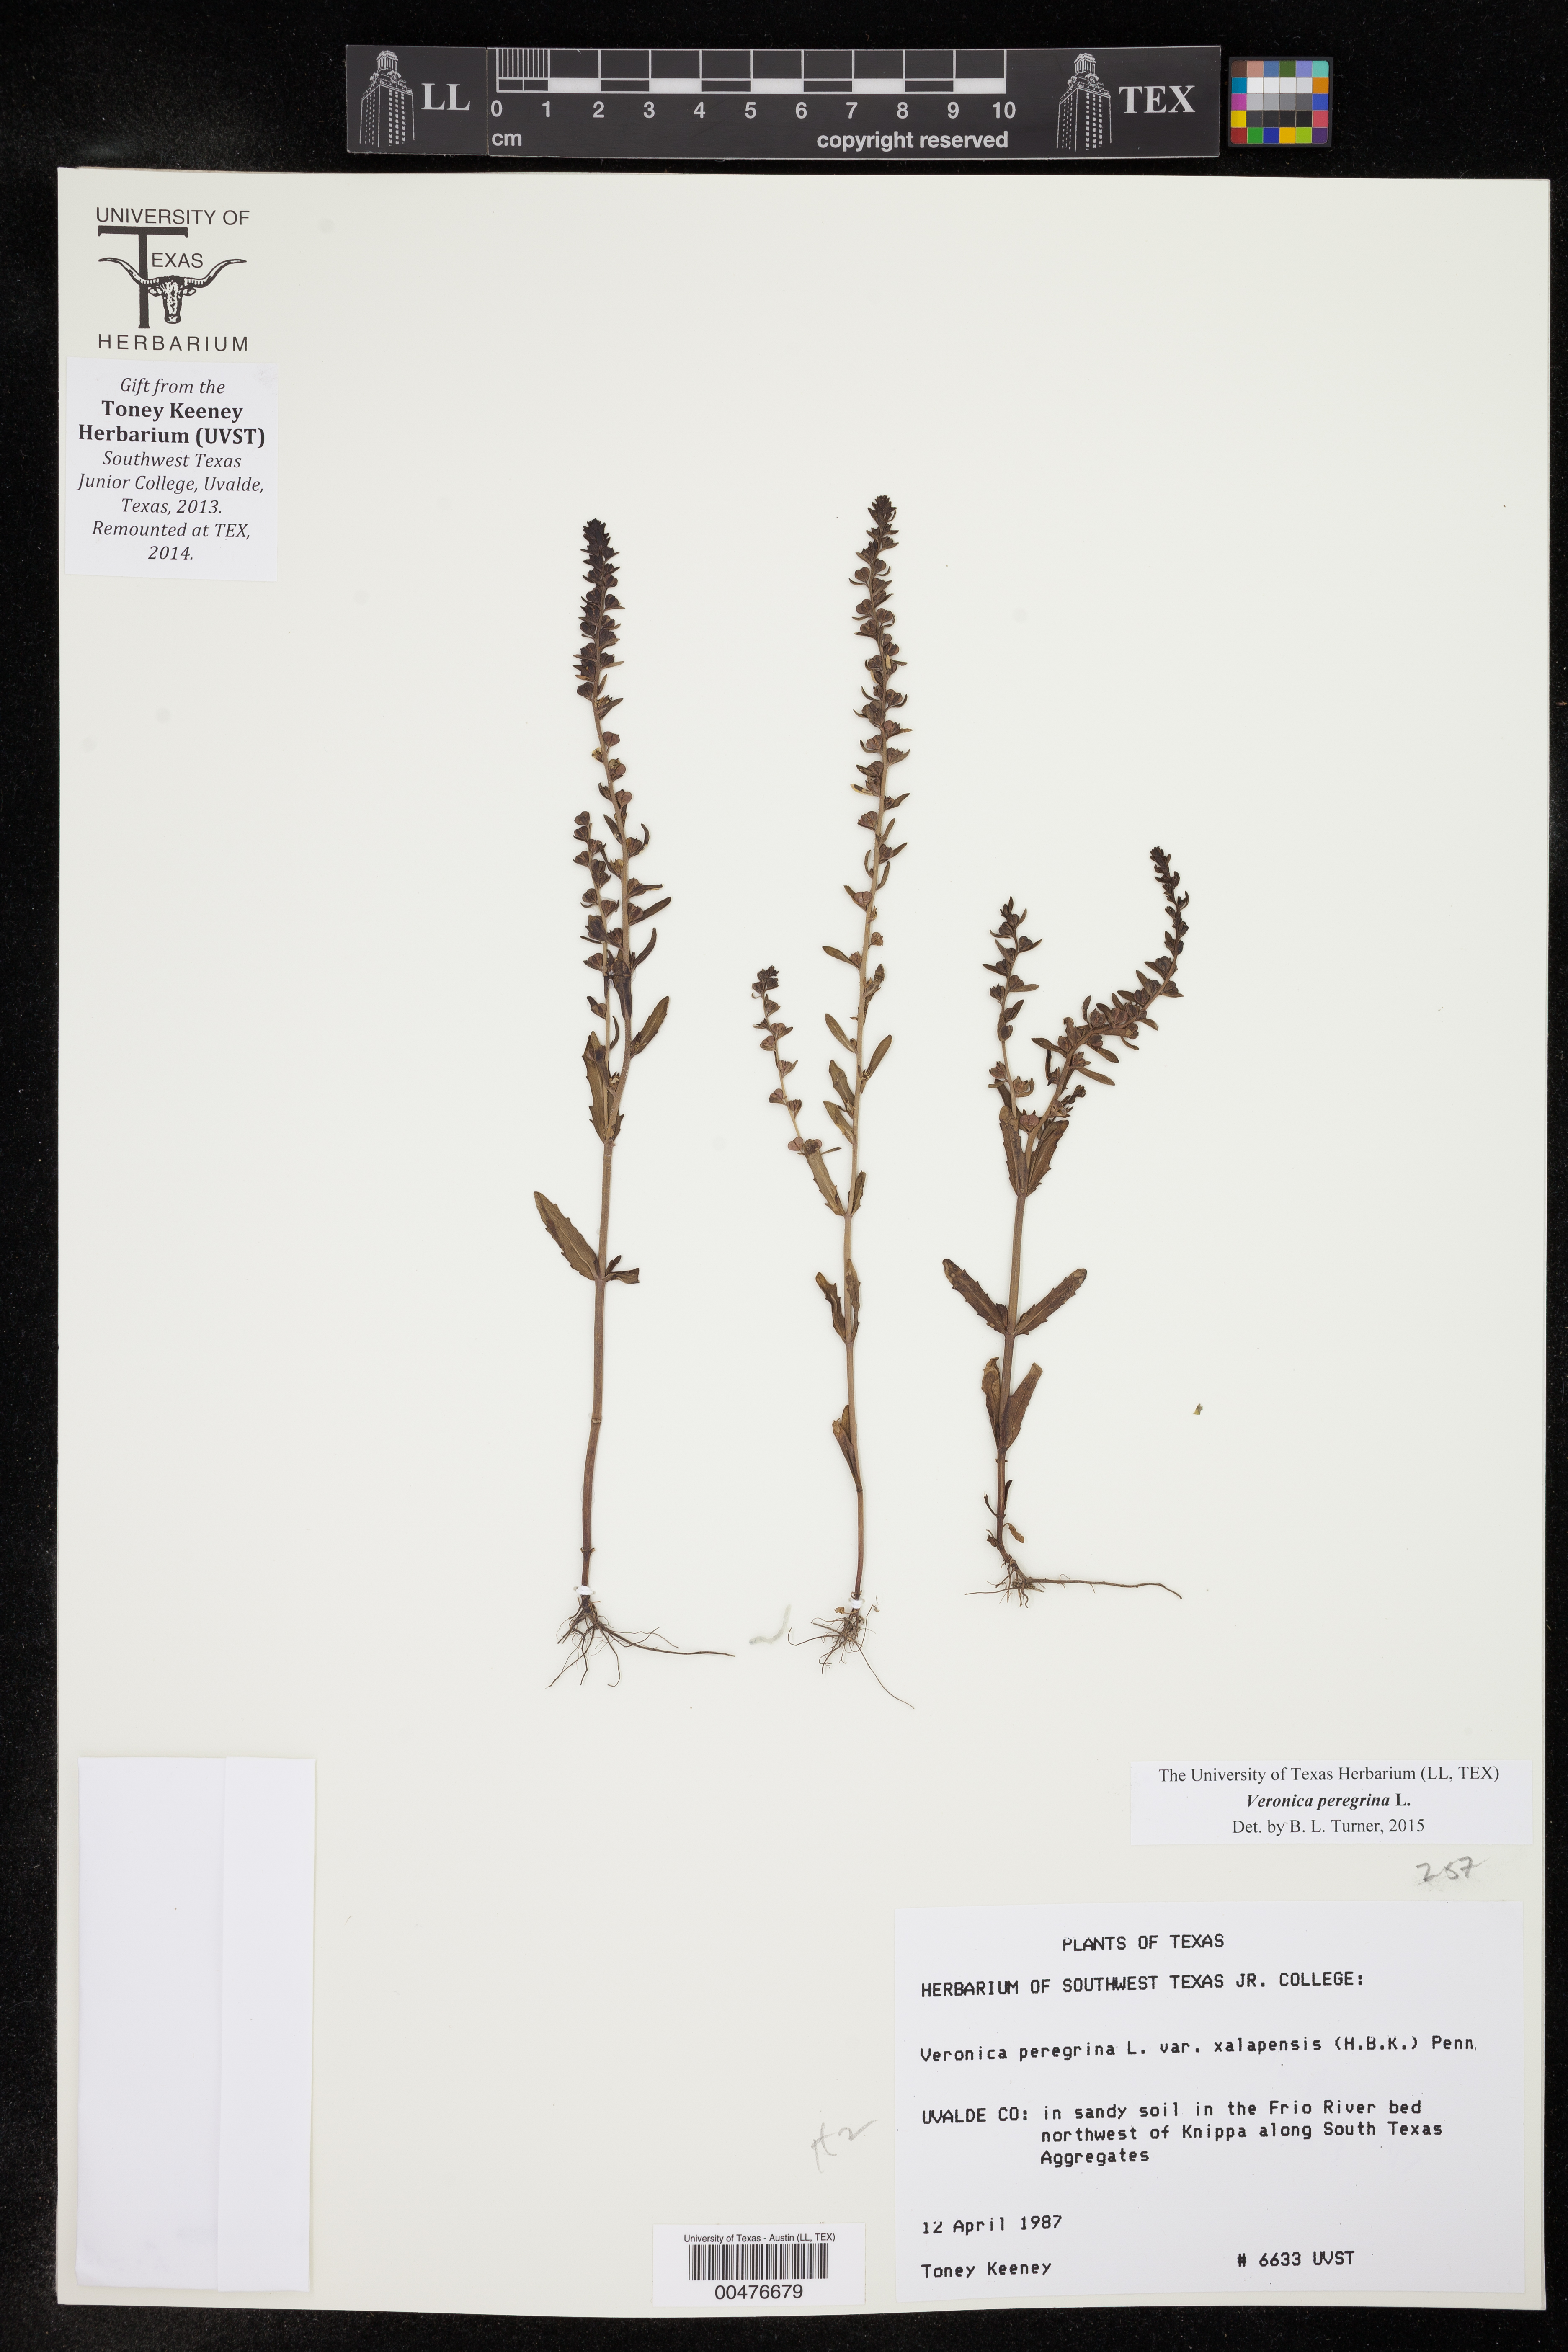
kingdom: Plantae
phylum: Tracheophyta
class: Magnoliopsida
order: Lamiales
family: Plantaginaceae
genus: Veronica
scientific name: Veronica peregrina
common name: Neckweed
